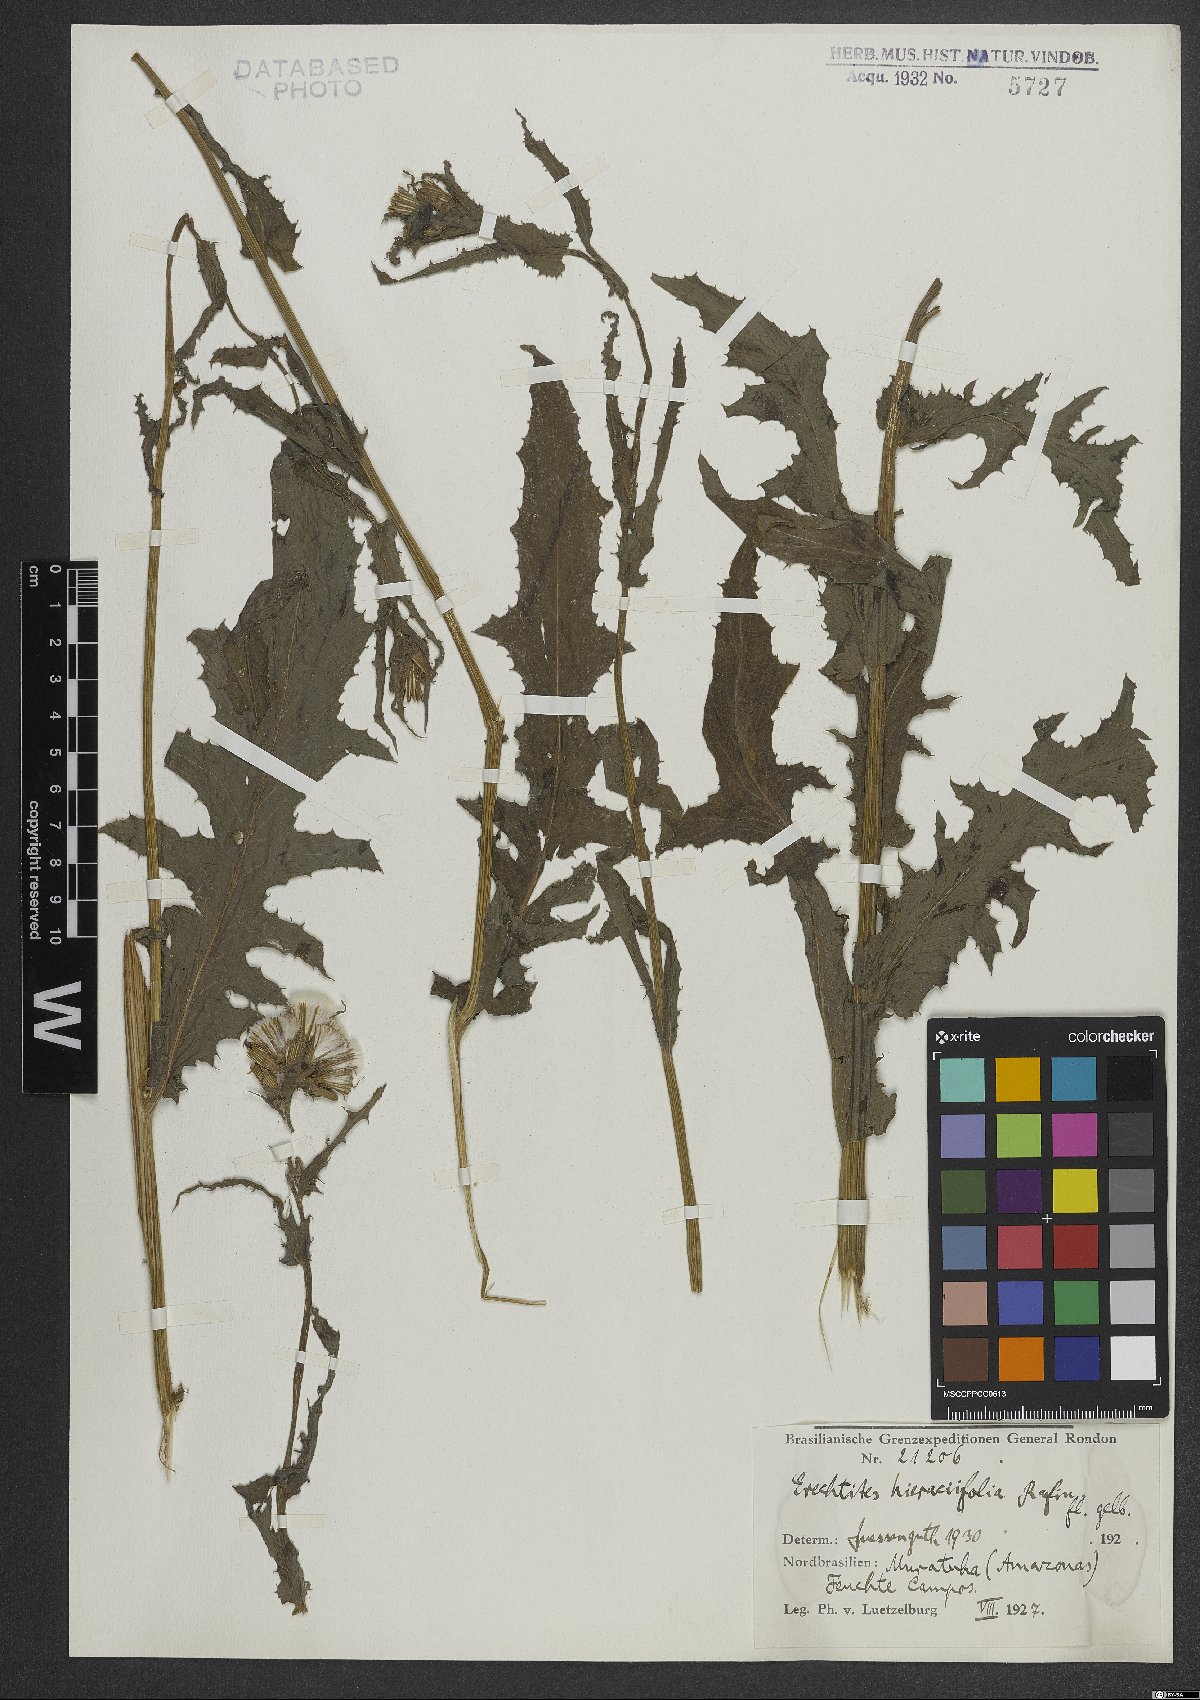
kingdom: Plantae
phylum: Tracheophyta
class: Magnoliopsida
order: Asterales
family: Asteraceae
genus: Erechtites
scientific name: Erechtites hieraciifolius
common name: American burnweed
